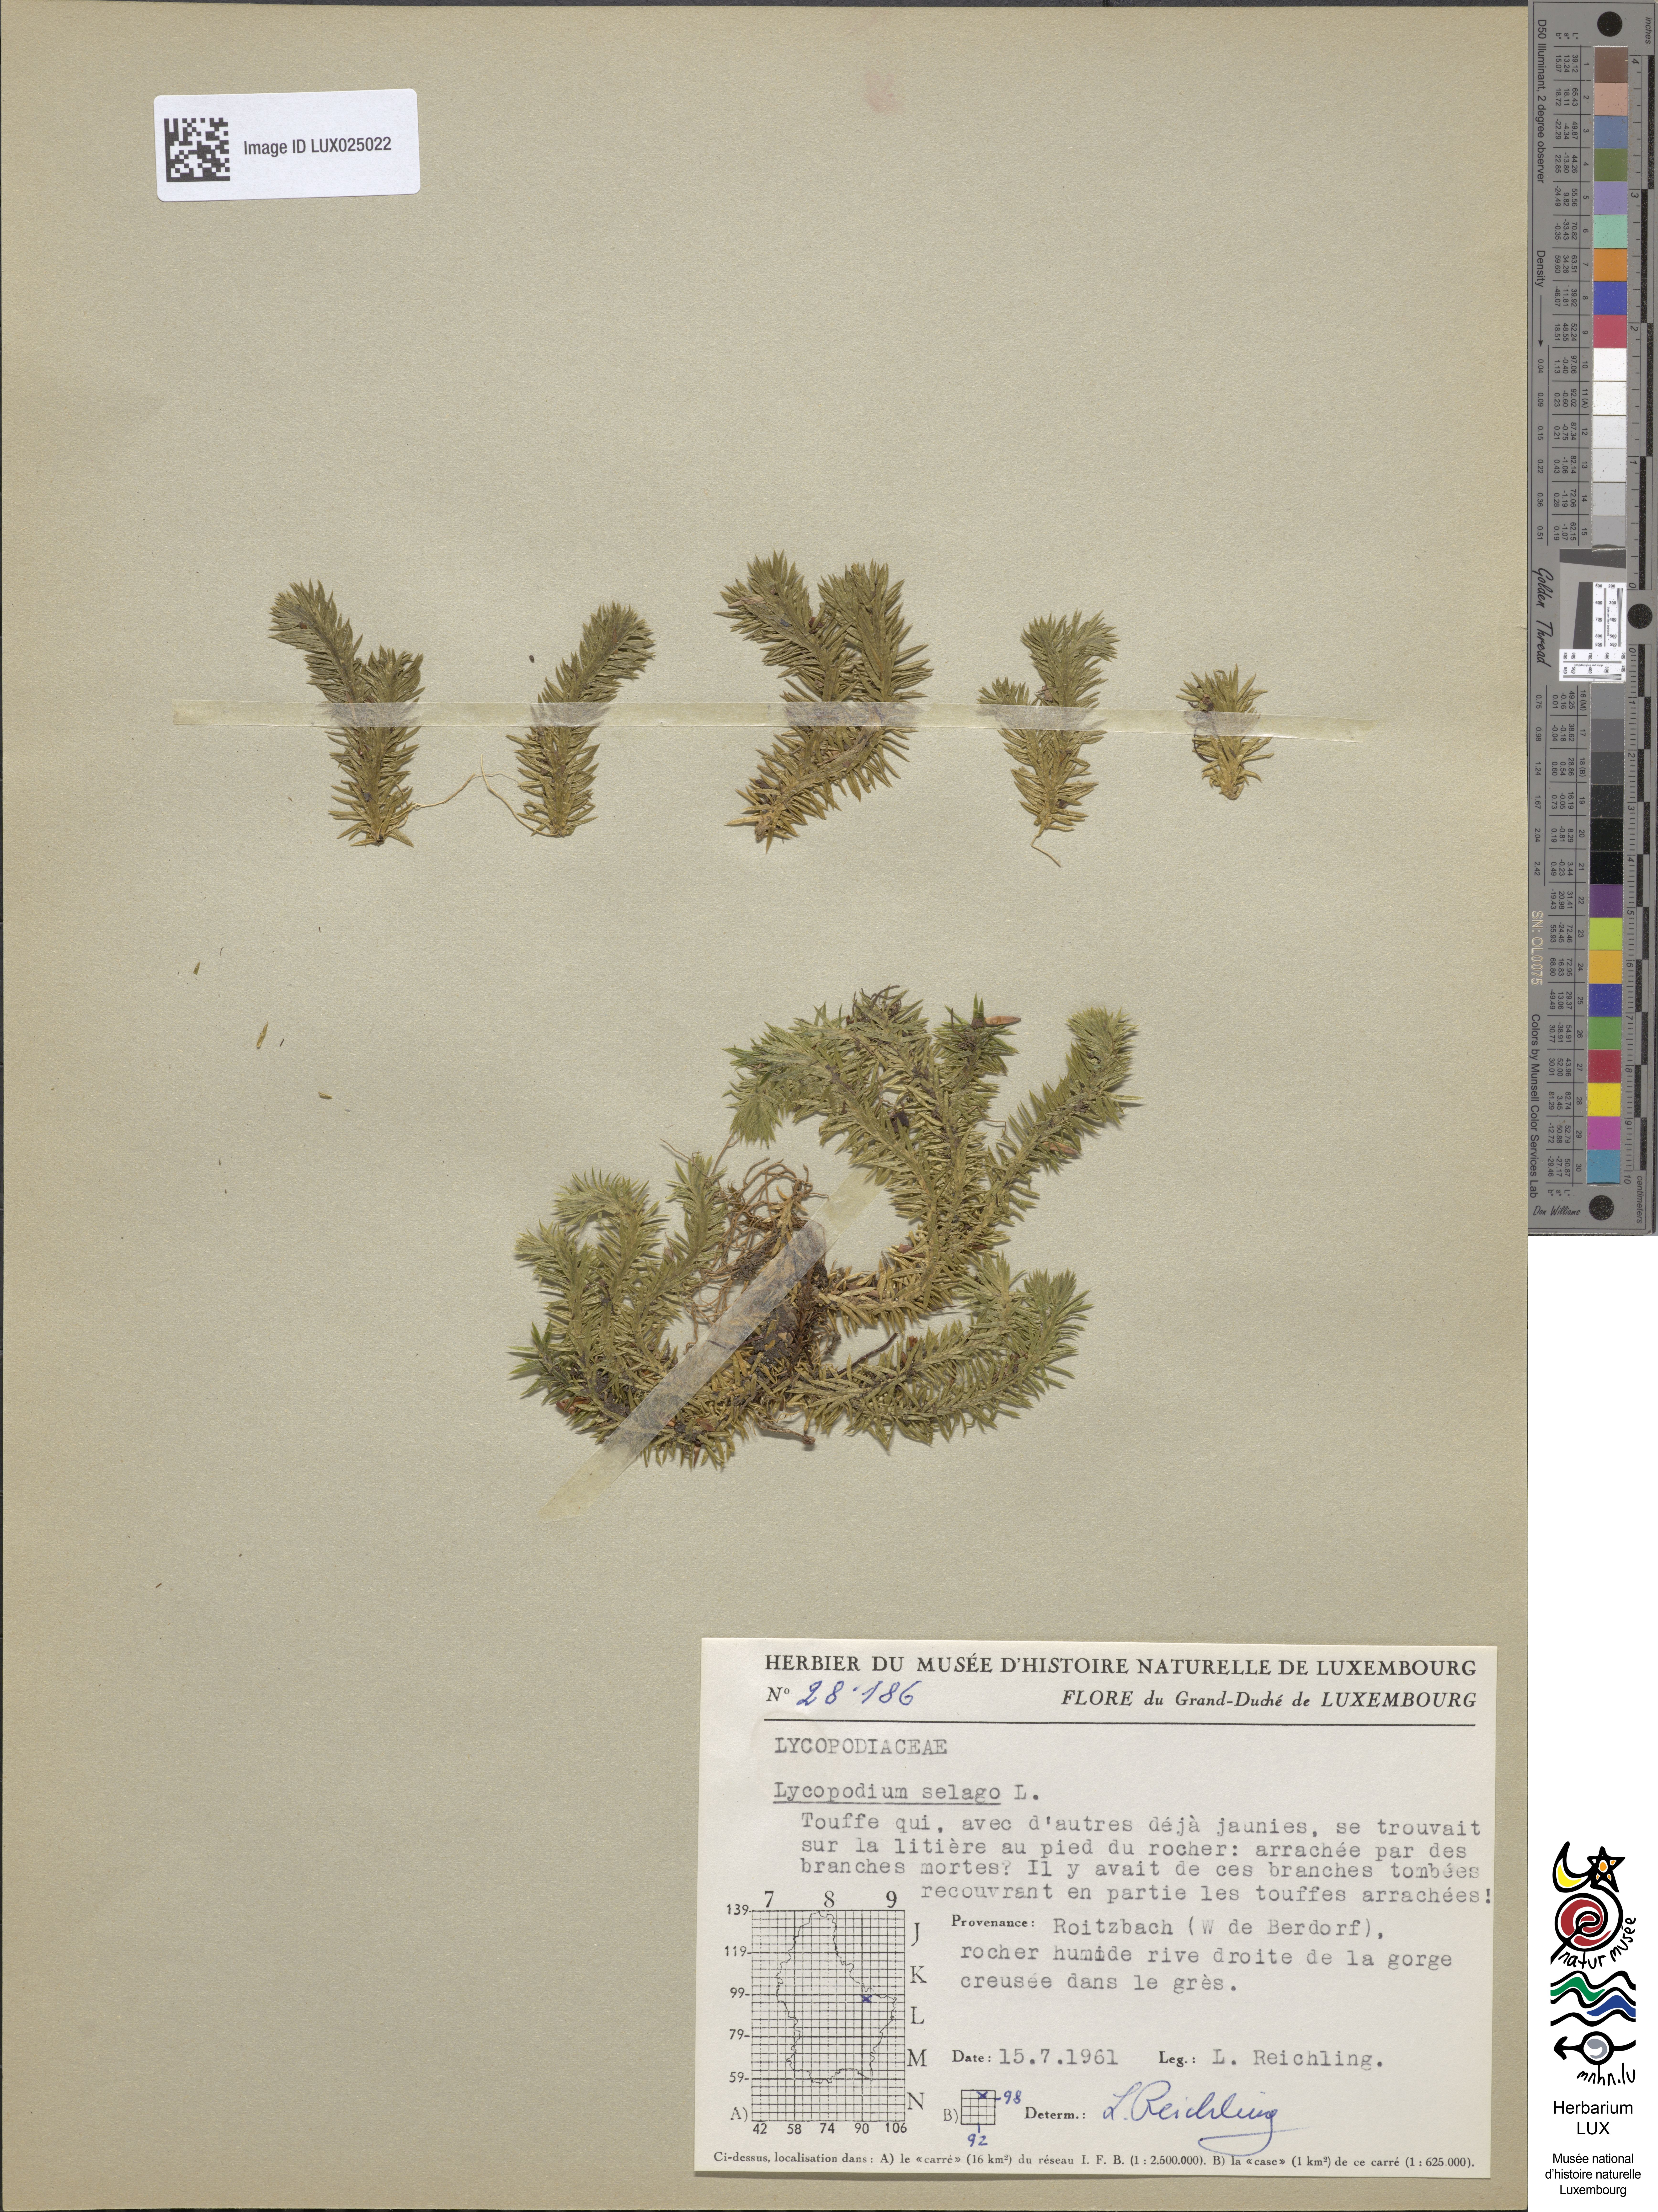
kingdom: Plantae
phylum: Tracheophyta
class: Lycopodiopsida
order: Lycopodiales
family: Lycopodiaceae
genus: Huperzia
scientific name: Huperzia selago
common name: Northern firmoss
